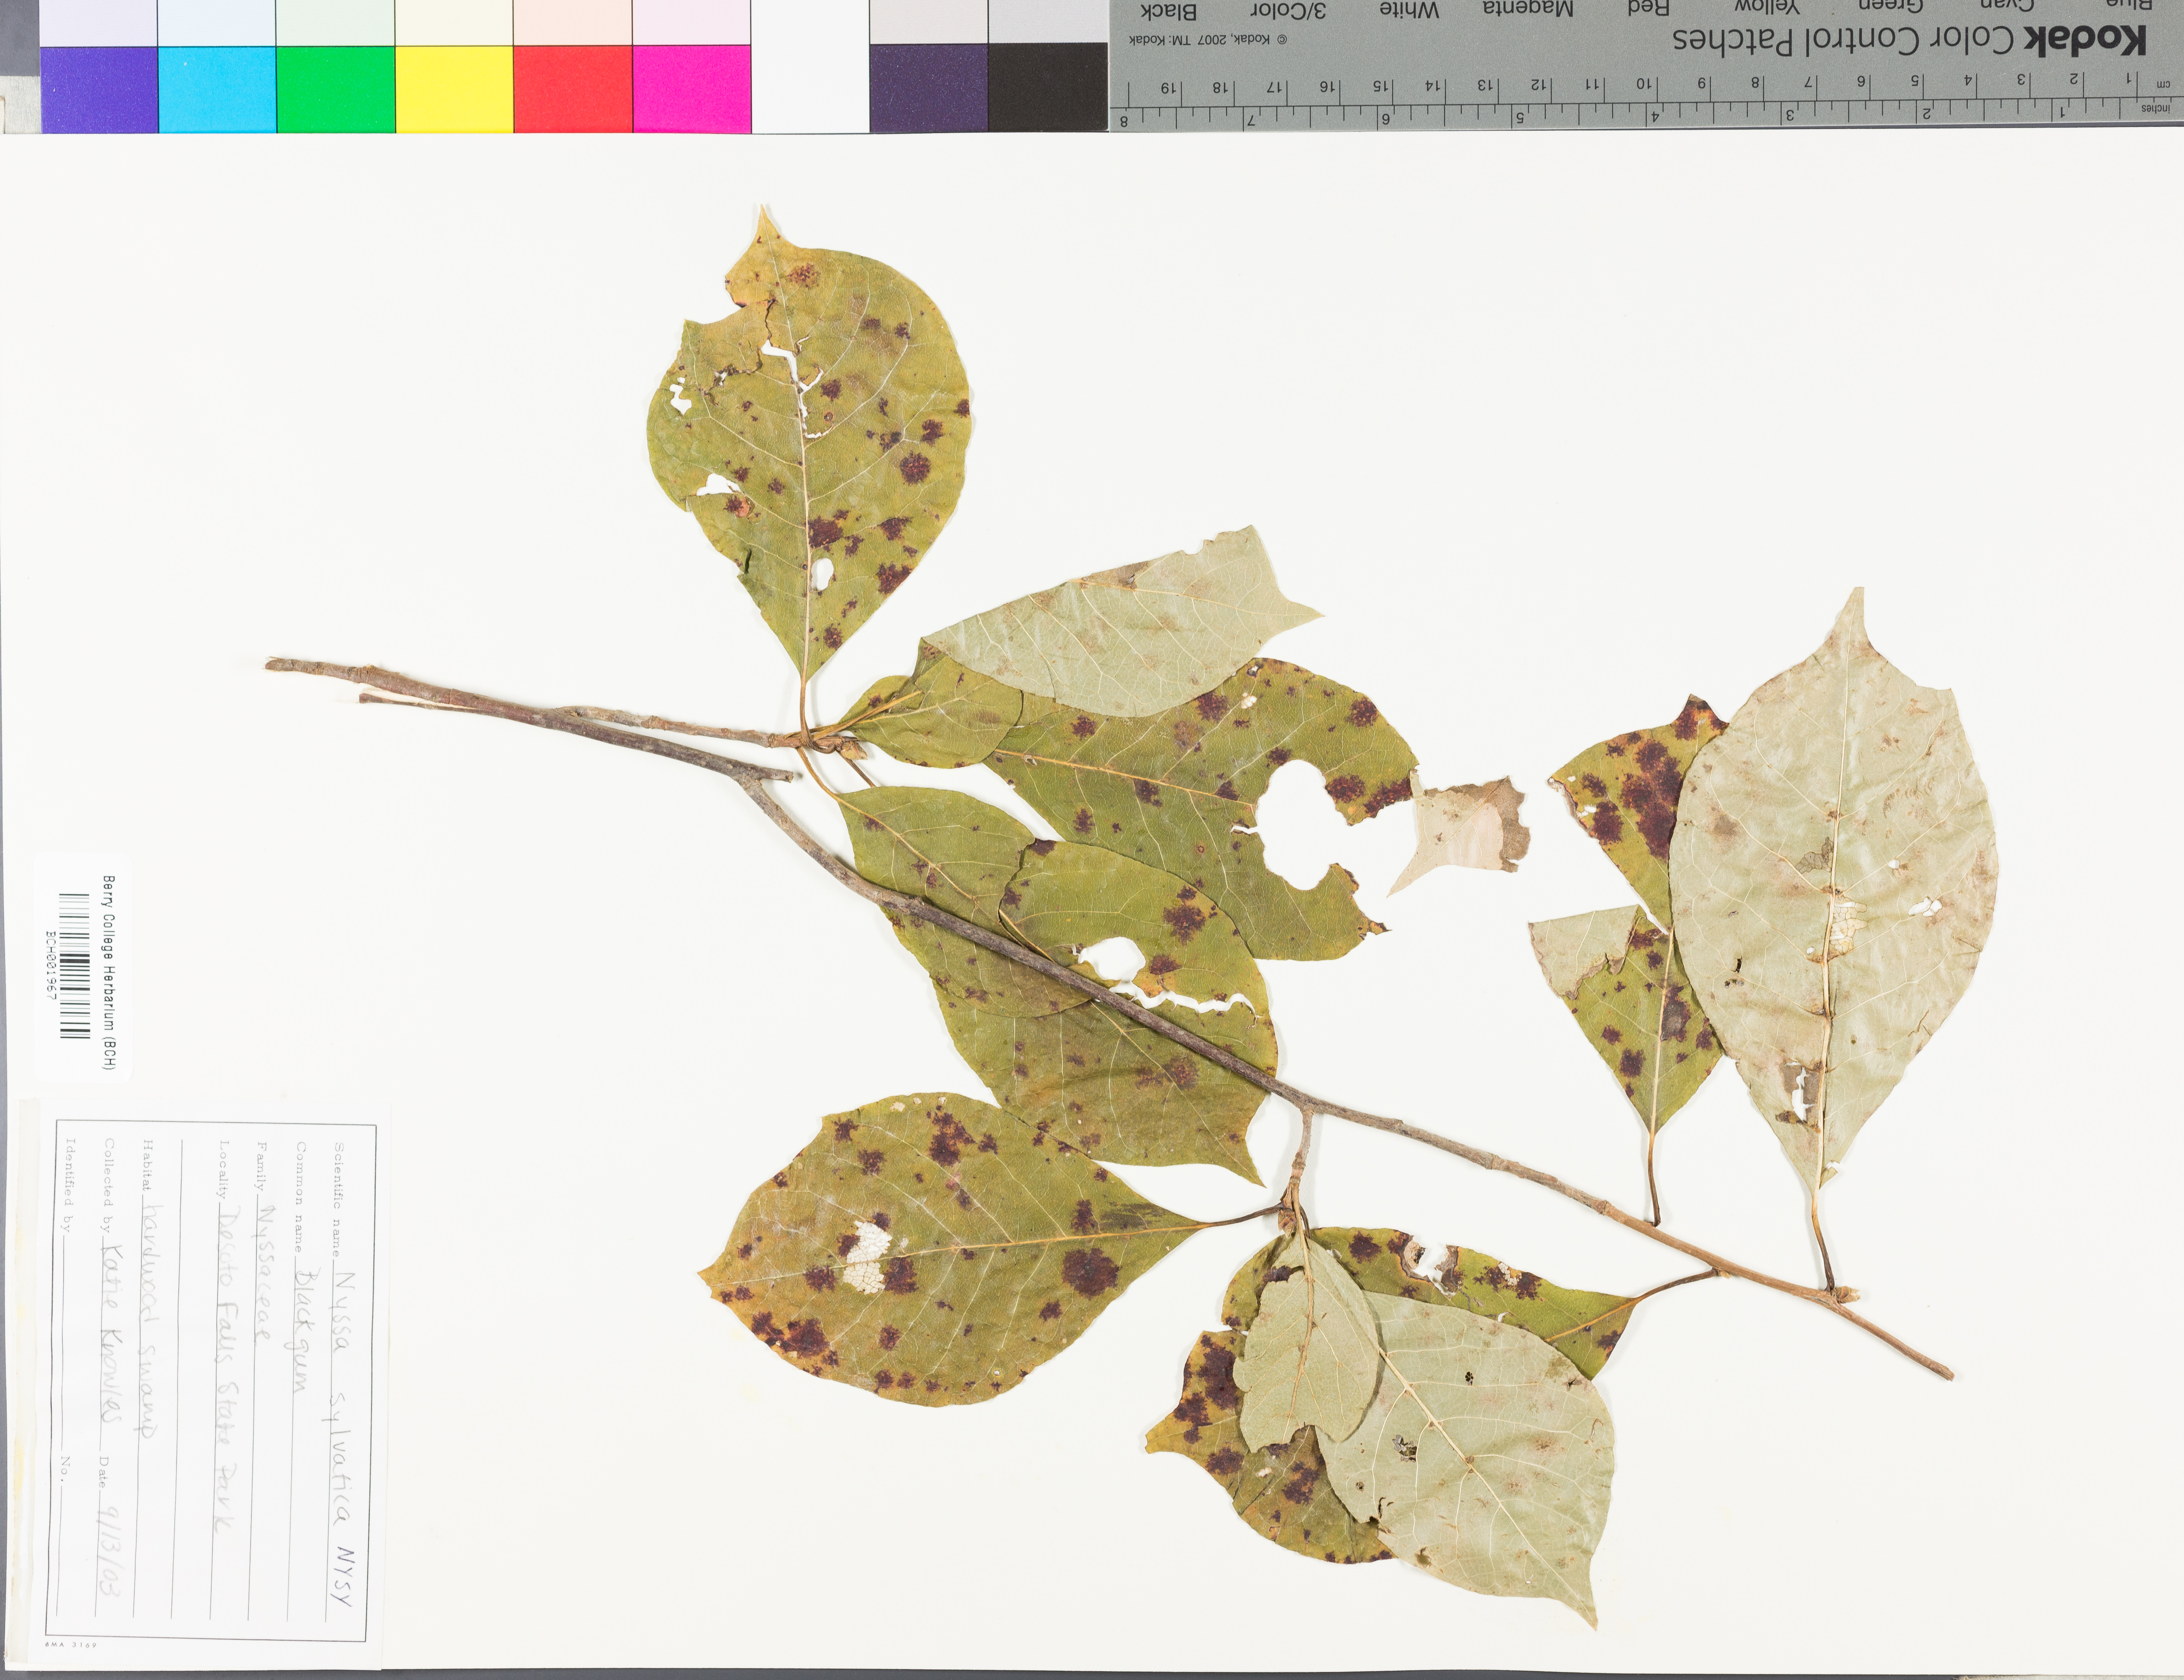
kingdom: Plantae
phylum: Tracheophyta
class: Magnoliopsida
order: Cornales
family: Nyssaceae
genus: Nyssa
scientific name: Nyssa sylvatica
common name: Black tupelo
